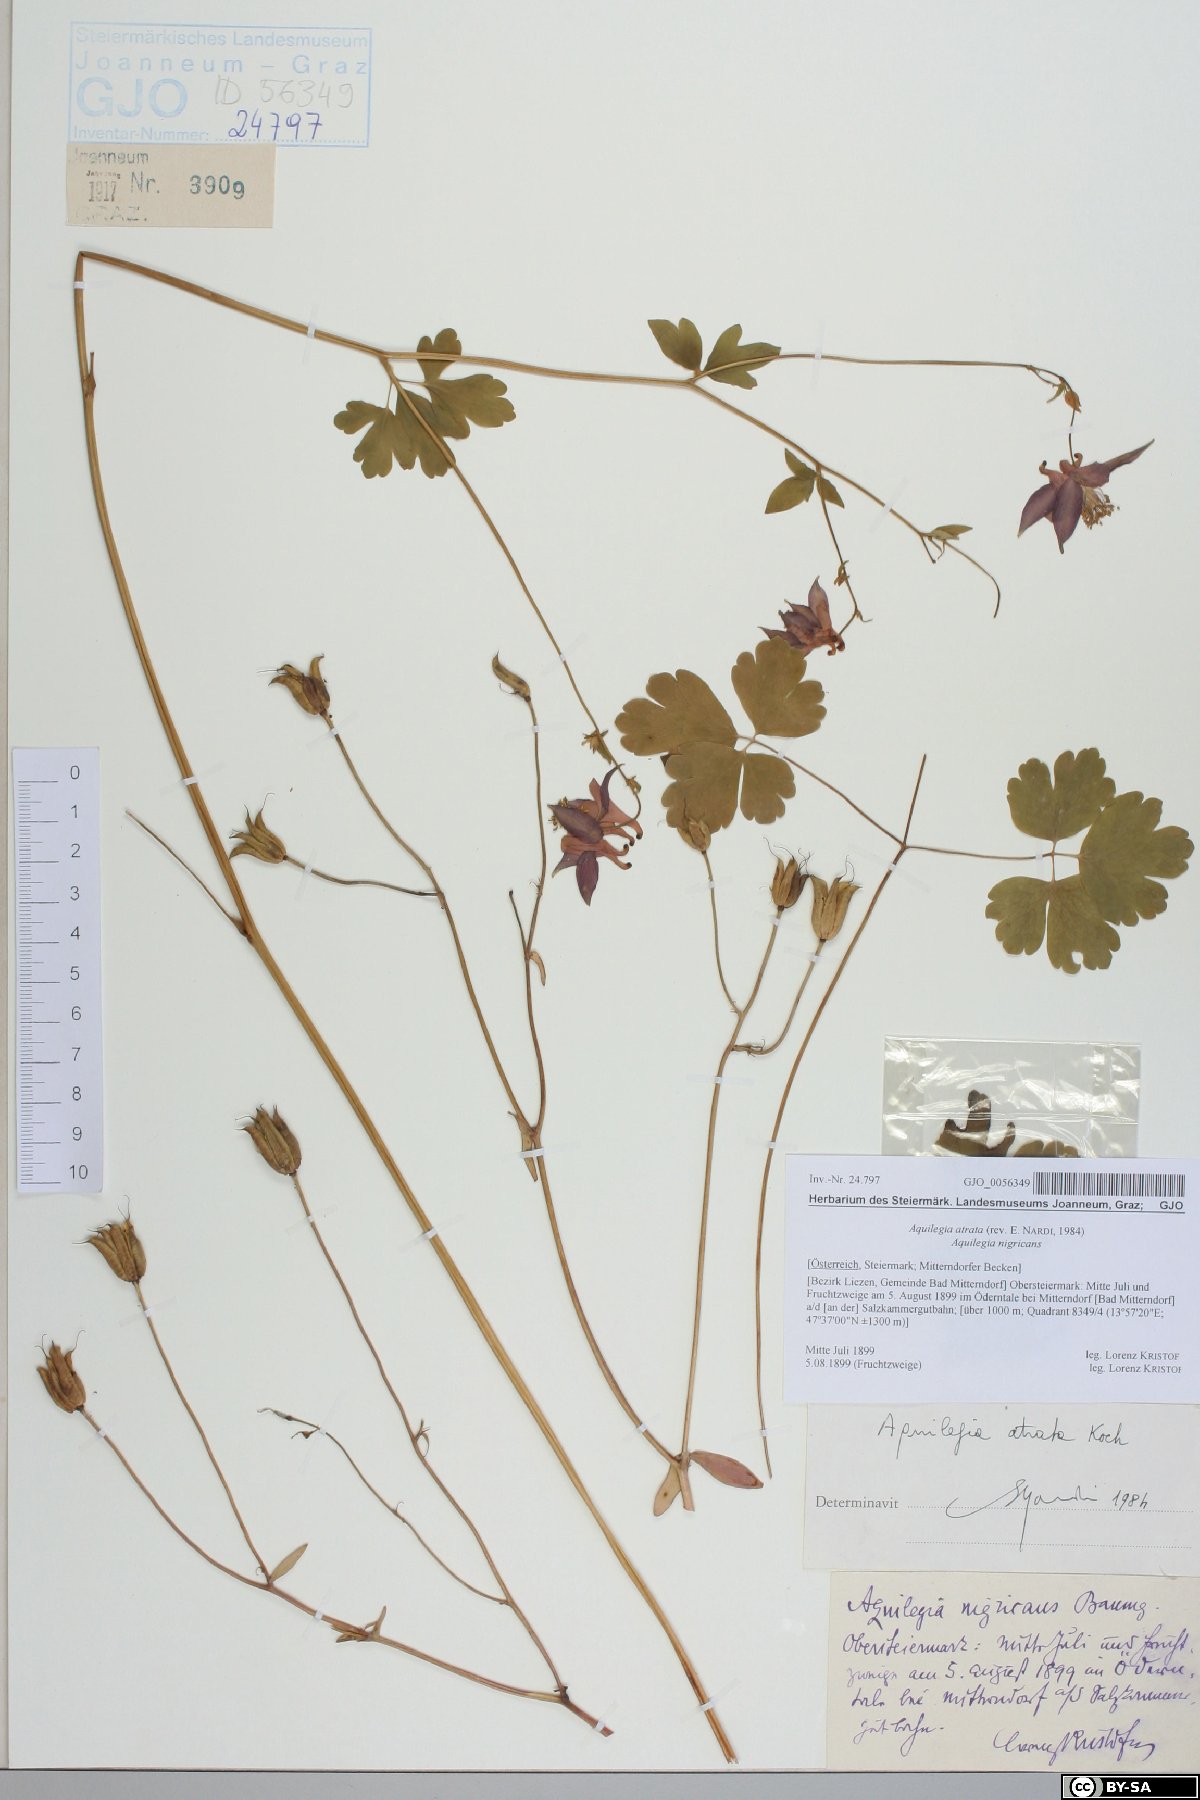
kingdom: Plantae
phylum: Tracheophyta
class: Magnoliopsida
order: Ranunculales
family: Ranunculaceae
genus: Aquilegia
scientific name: Aquilegia atrata
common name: Dark columbine
